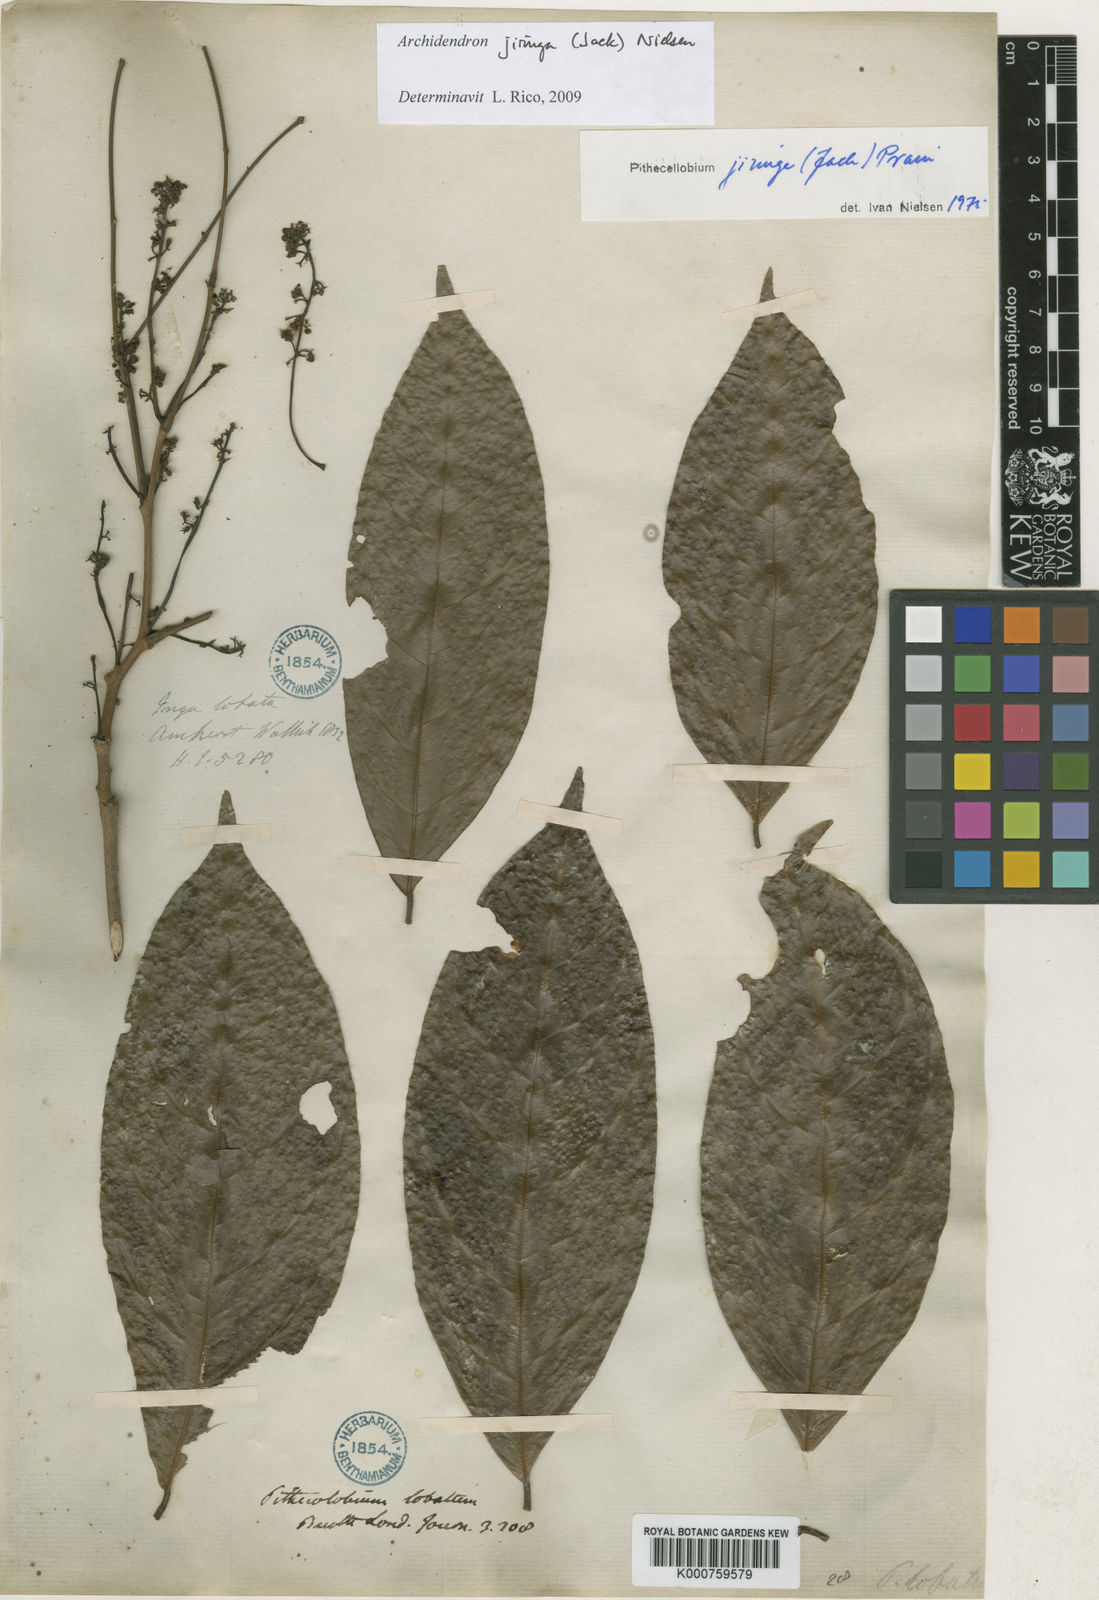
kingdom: Plantae
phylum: Tracheophyta
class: Magnoliopsida
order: Fabales
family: Fabaceae
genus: Archidendron
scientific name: Archidendron jiringa
